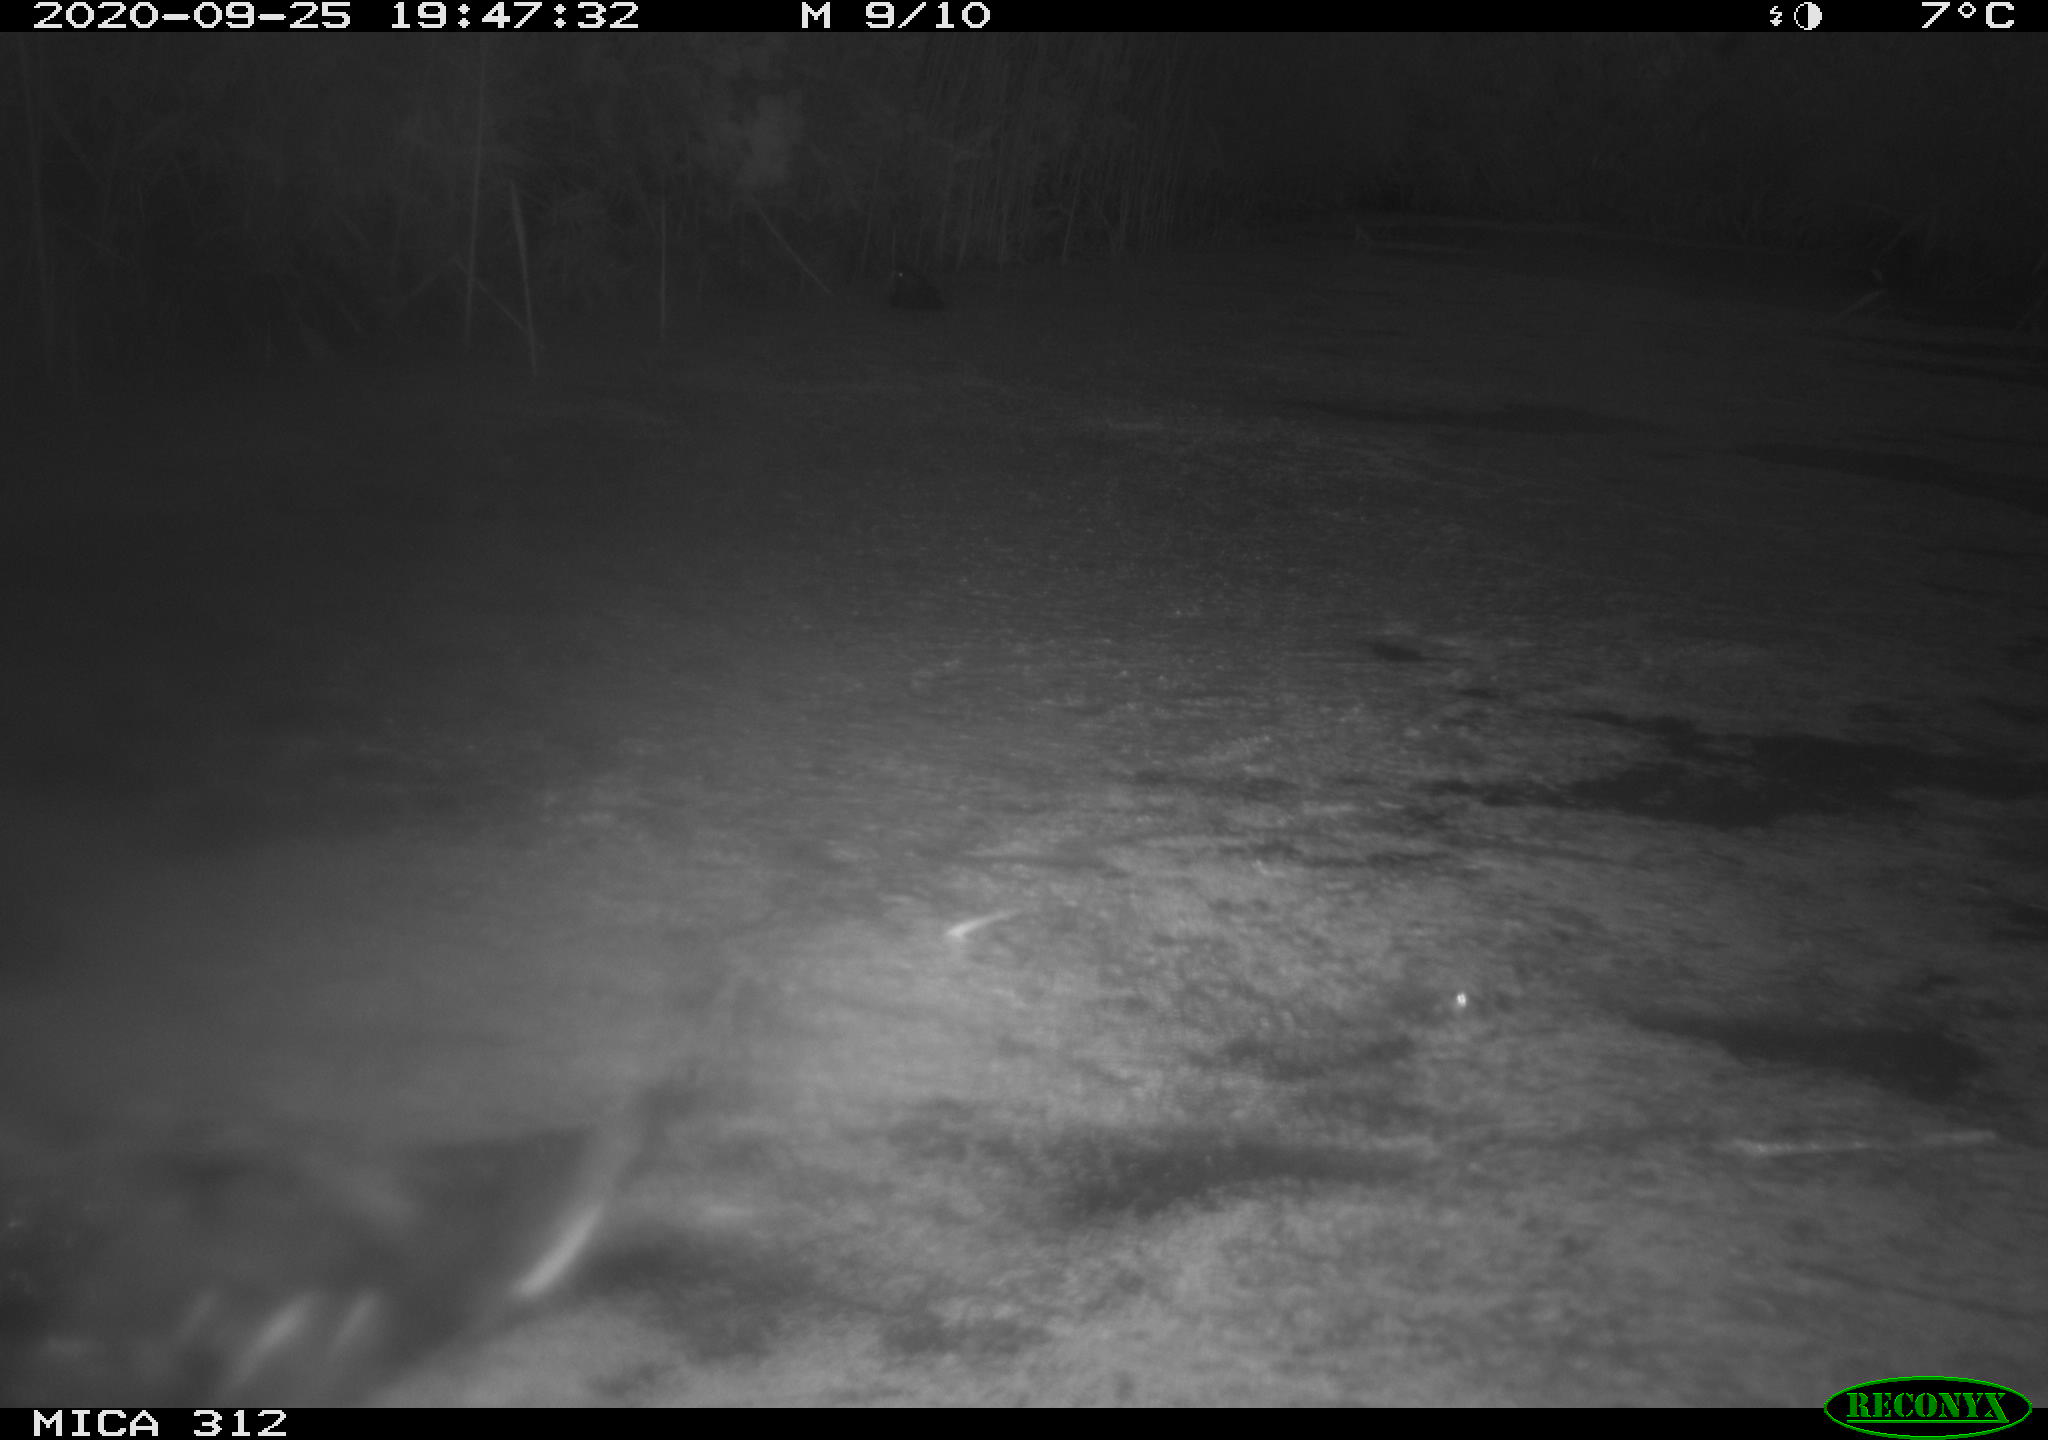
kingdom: Animalia
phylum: Chordata
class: Aves
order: Gruiformes
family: Rallidae
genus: Fulica
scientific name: Fulica atra
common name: Eurasian coot
